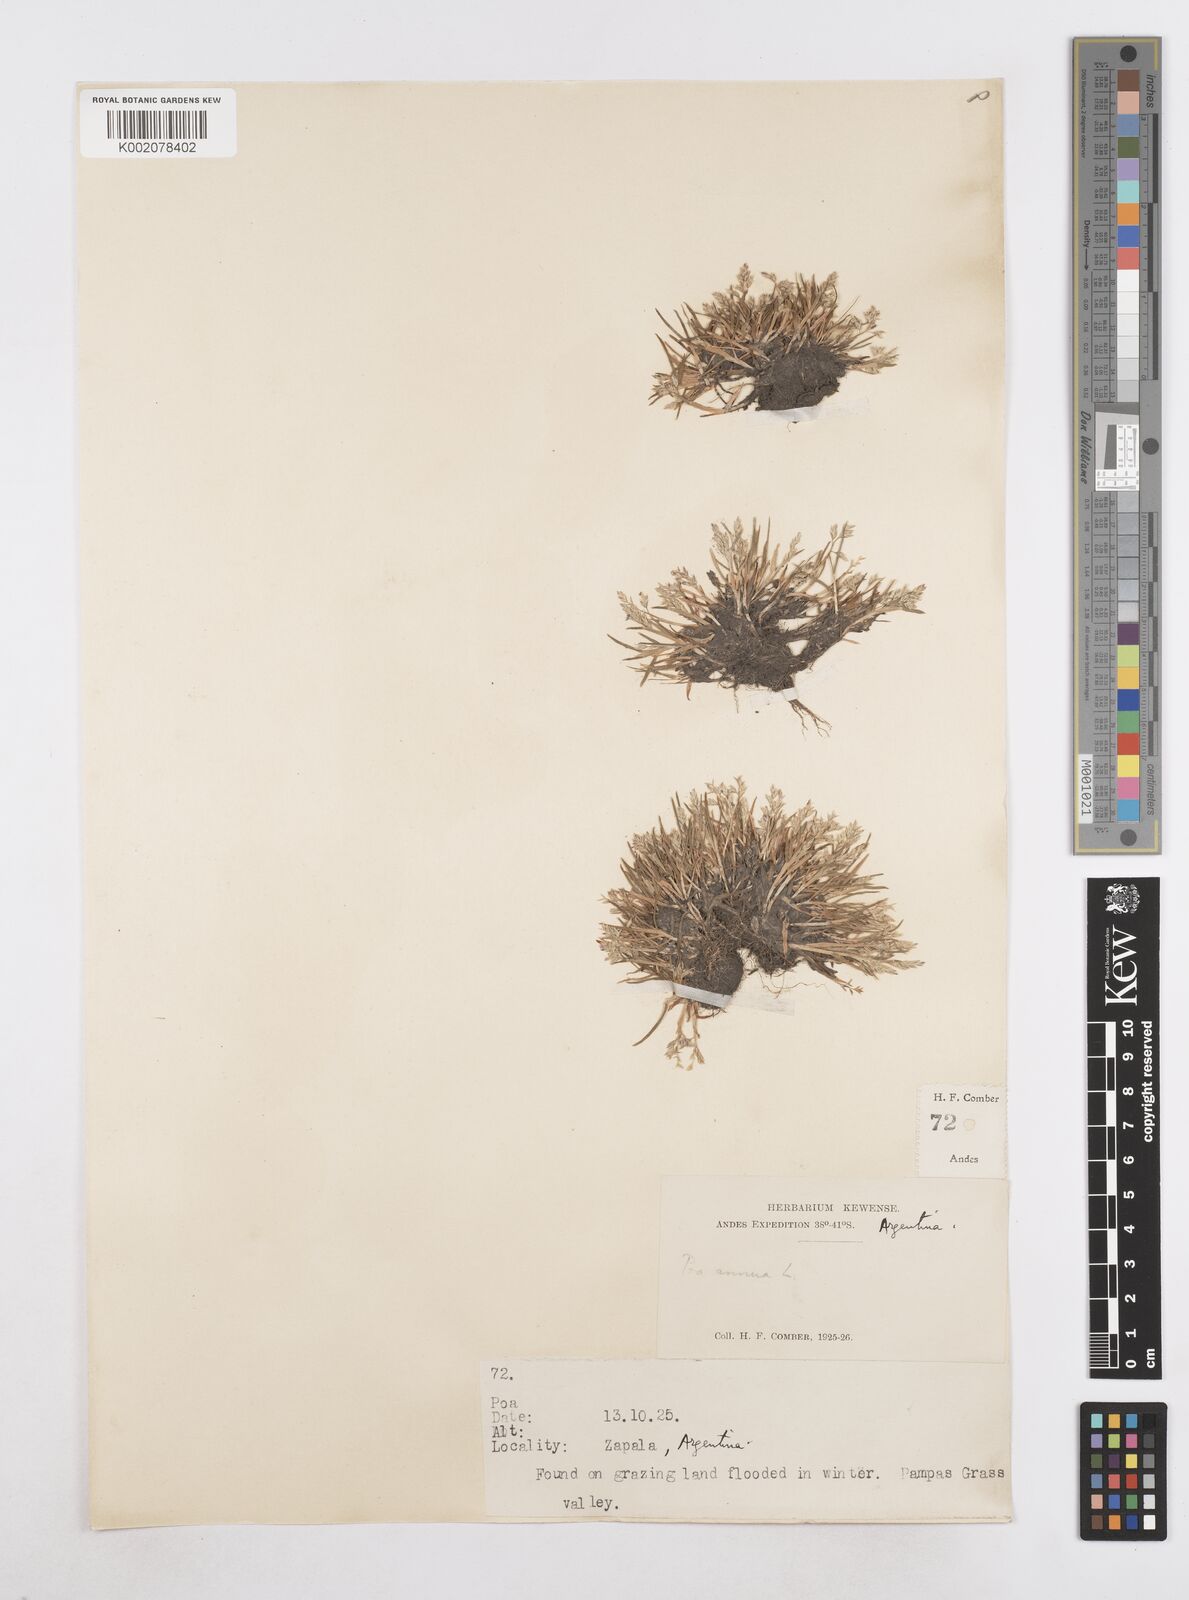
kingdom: Plantae
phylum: Tracheophyta
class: Liliopsida
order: Poales
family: Poaceae
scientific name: Poaceae
